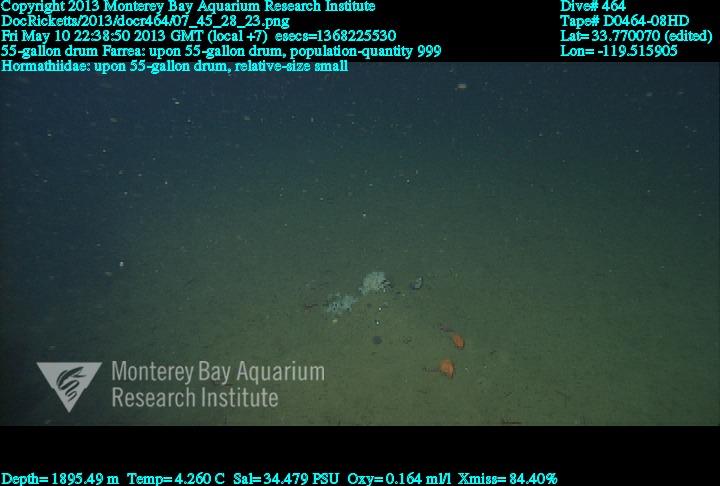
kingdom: Animalia
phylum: Porifera
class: Hexactinellida
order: Sceptrulophora
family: Farreidae
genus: Farrea
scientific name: Farrea
